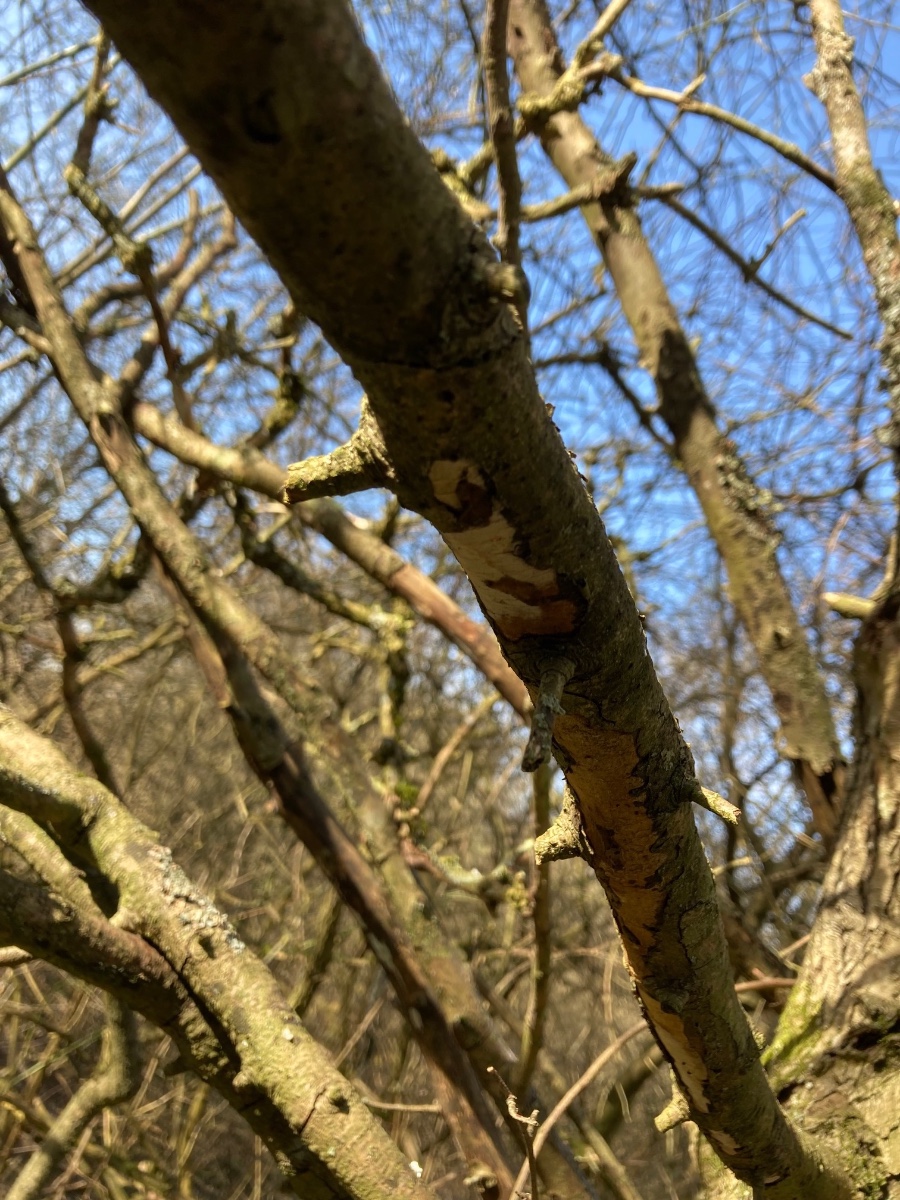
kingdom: Fungi
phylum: Basidiomycota
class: Agaricomycetes
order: Corticiales
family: Vuilleminiaceae
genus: Vuilleminia
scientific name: Vuilleminia cystidiata
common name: tjørne-barksprænger
